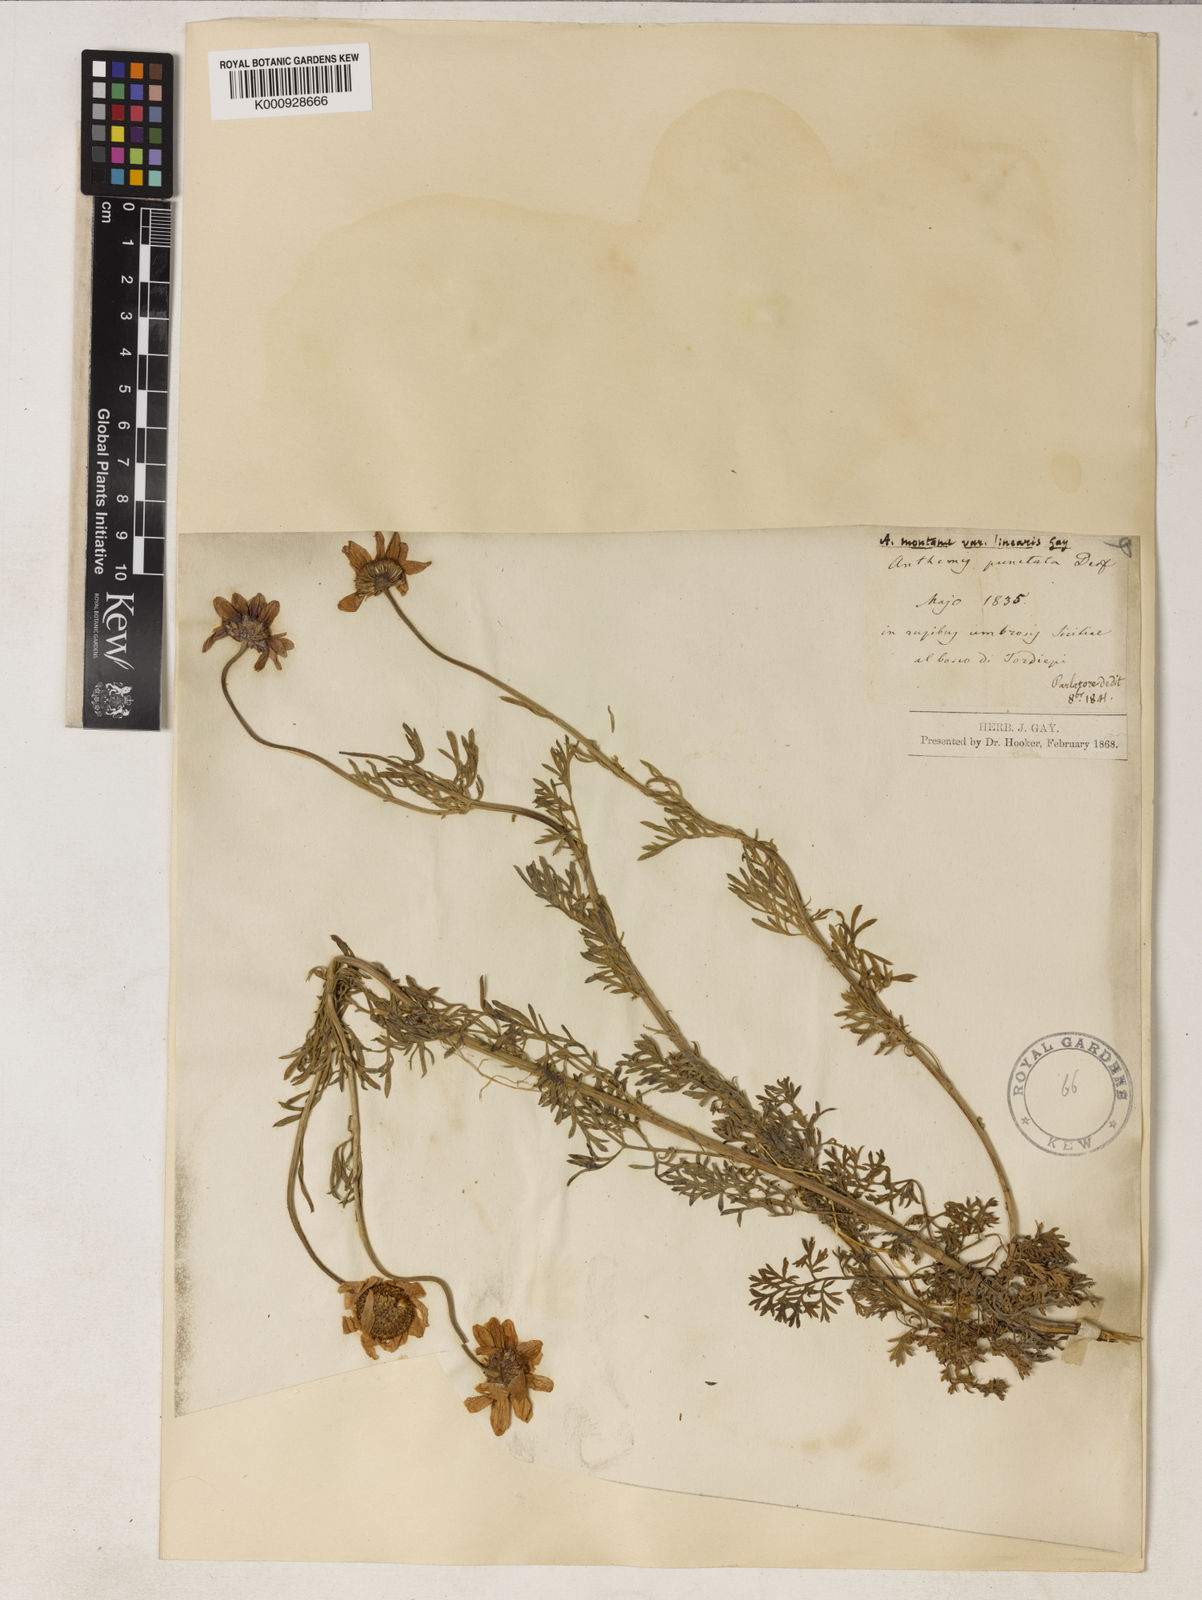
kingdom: Plantae
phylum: Tracheophyta
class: Magnoliopsida
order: Asterales
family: Asteraceae
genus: Anthemis
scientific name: Anthemis cupaniana
